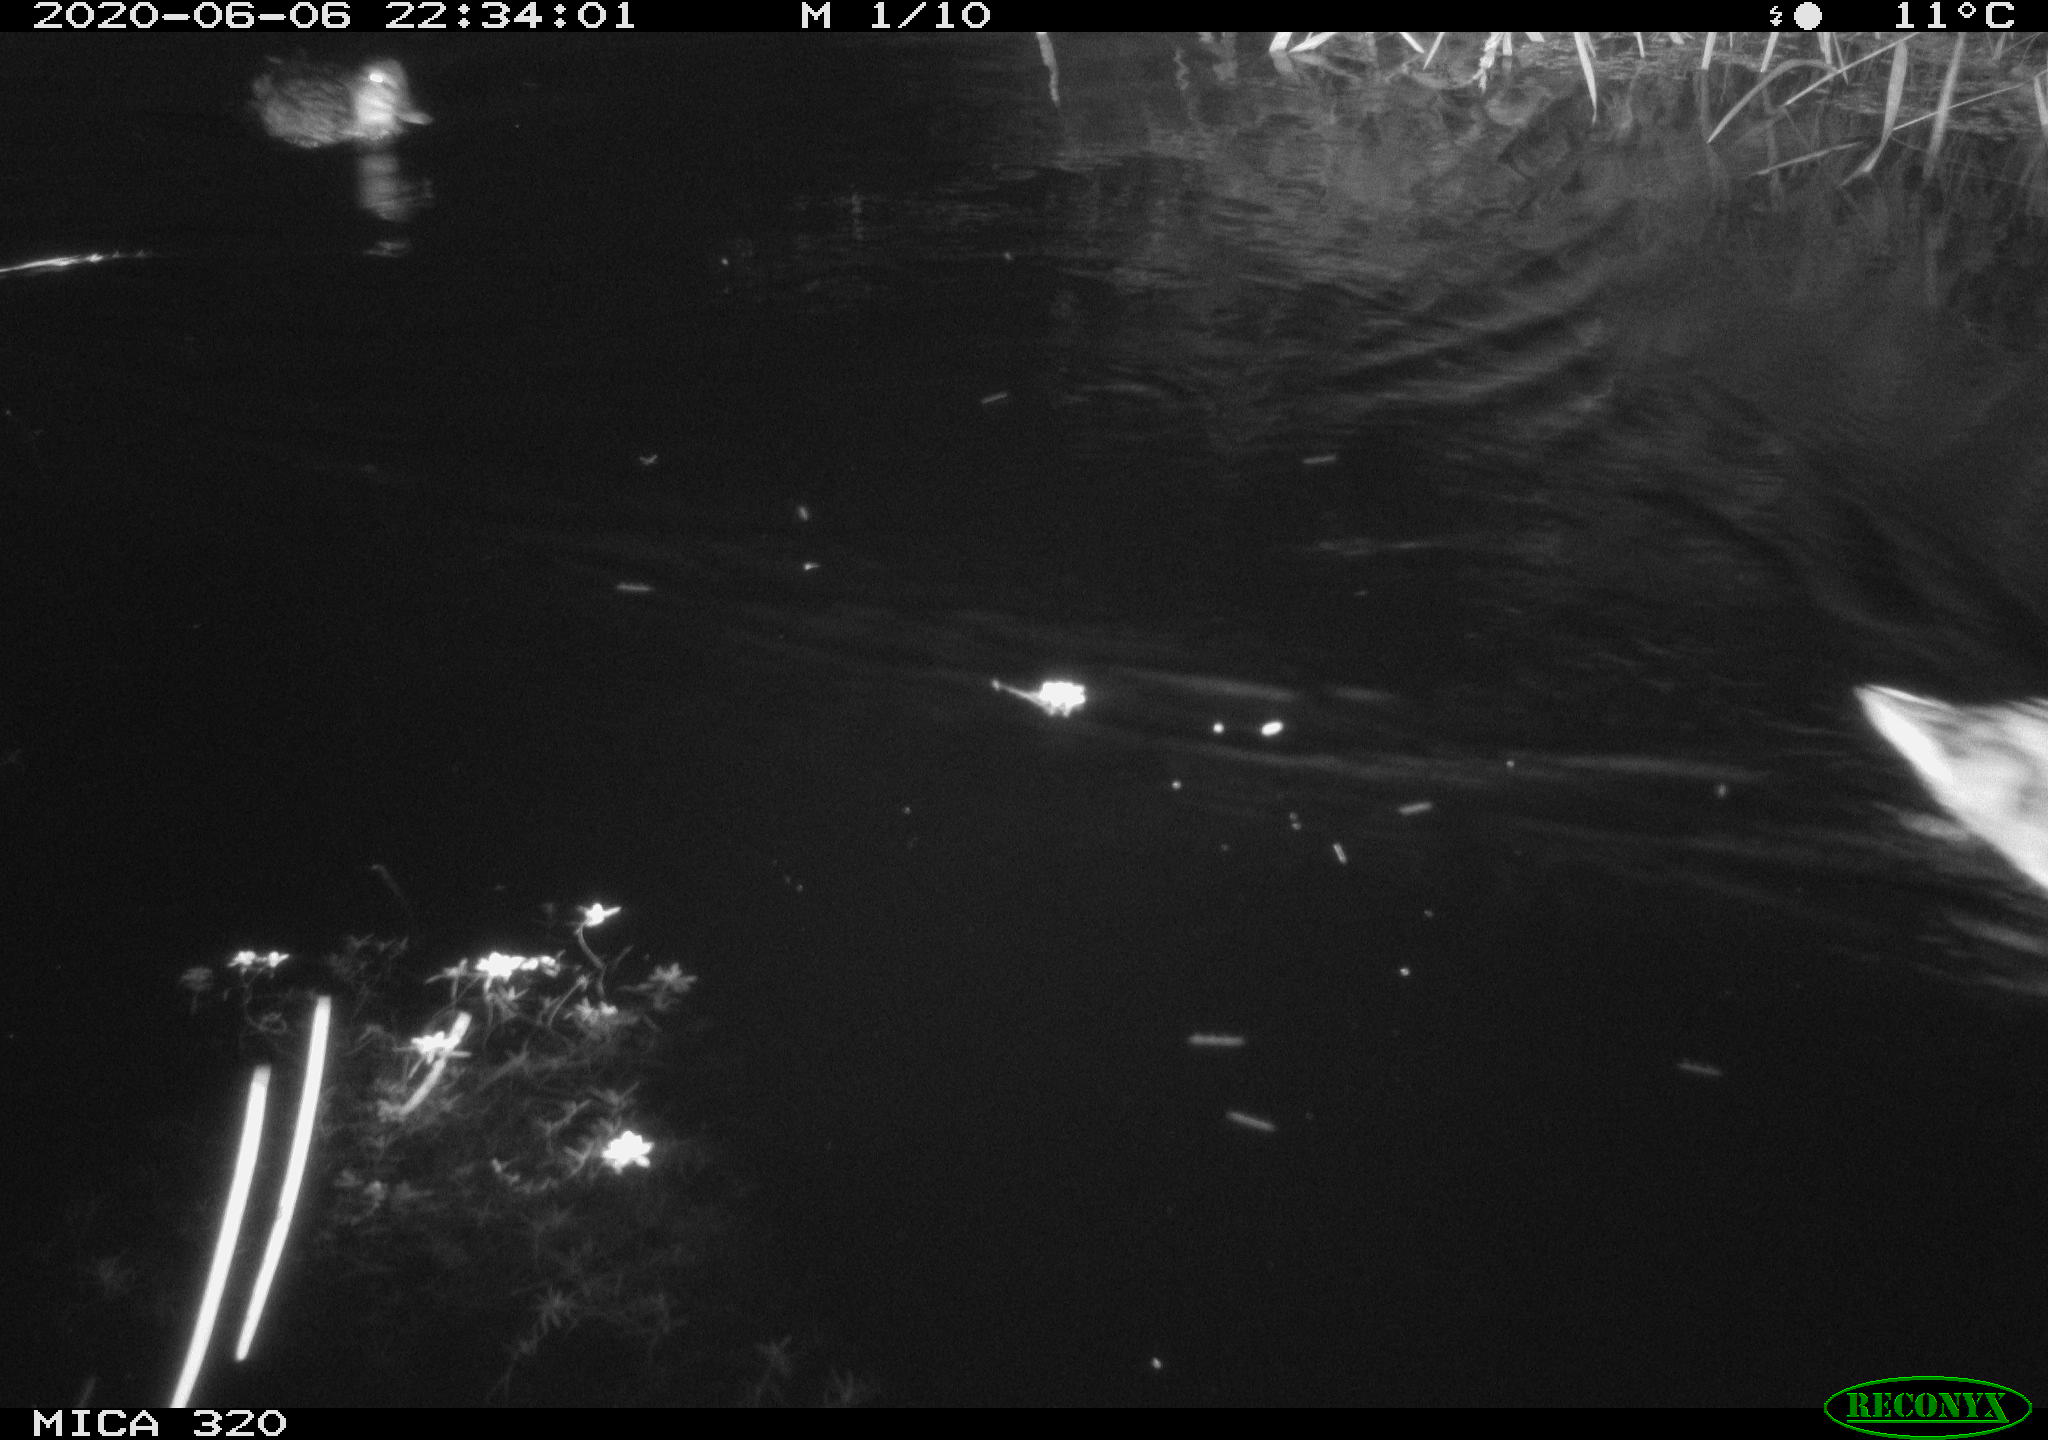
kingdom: Animalia
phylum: Chordata
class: Aves
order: Anseriformes
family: Anatidae
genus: Anas
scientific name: Anas platyrhynchos
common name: Mallard
